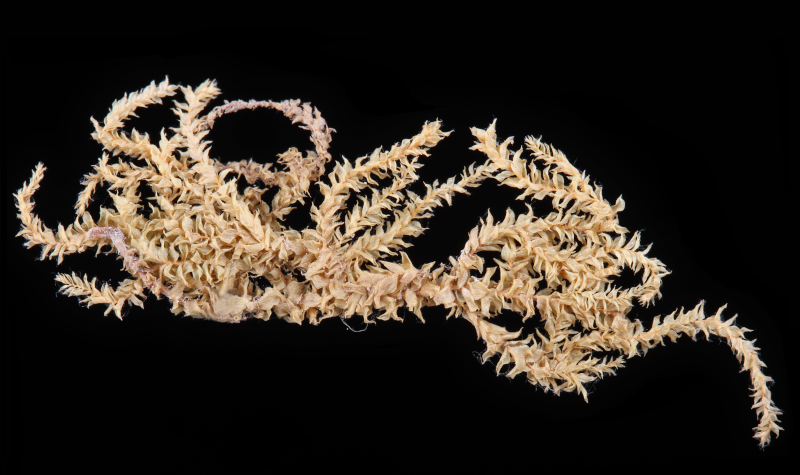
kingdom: Plantae
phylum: Bryophyta
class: Bryopsida
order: Hypnales
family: Hylocomiaceae
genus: Macrothamnium
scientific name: Macrothamnium macrocarpum
